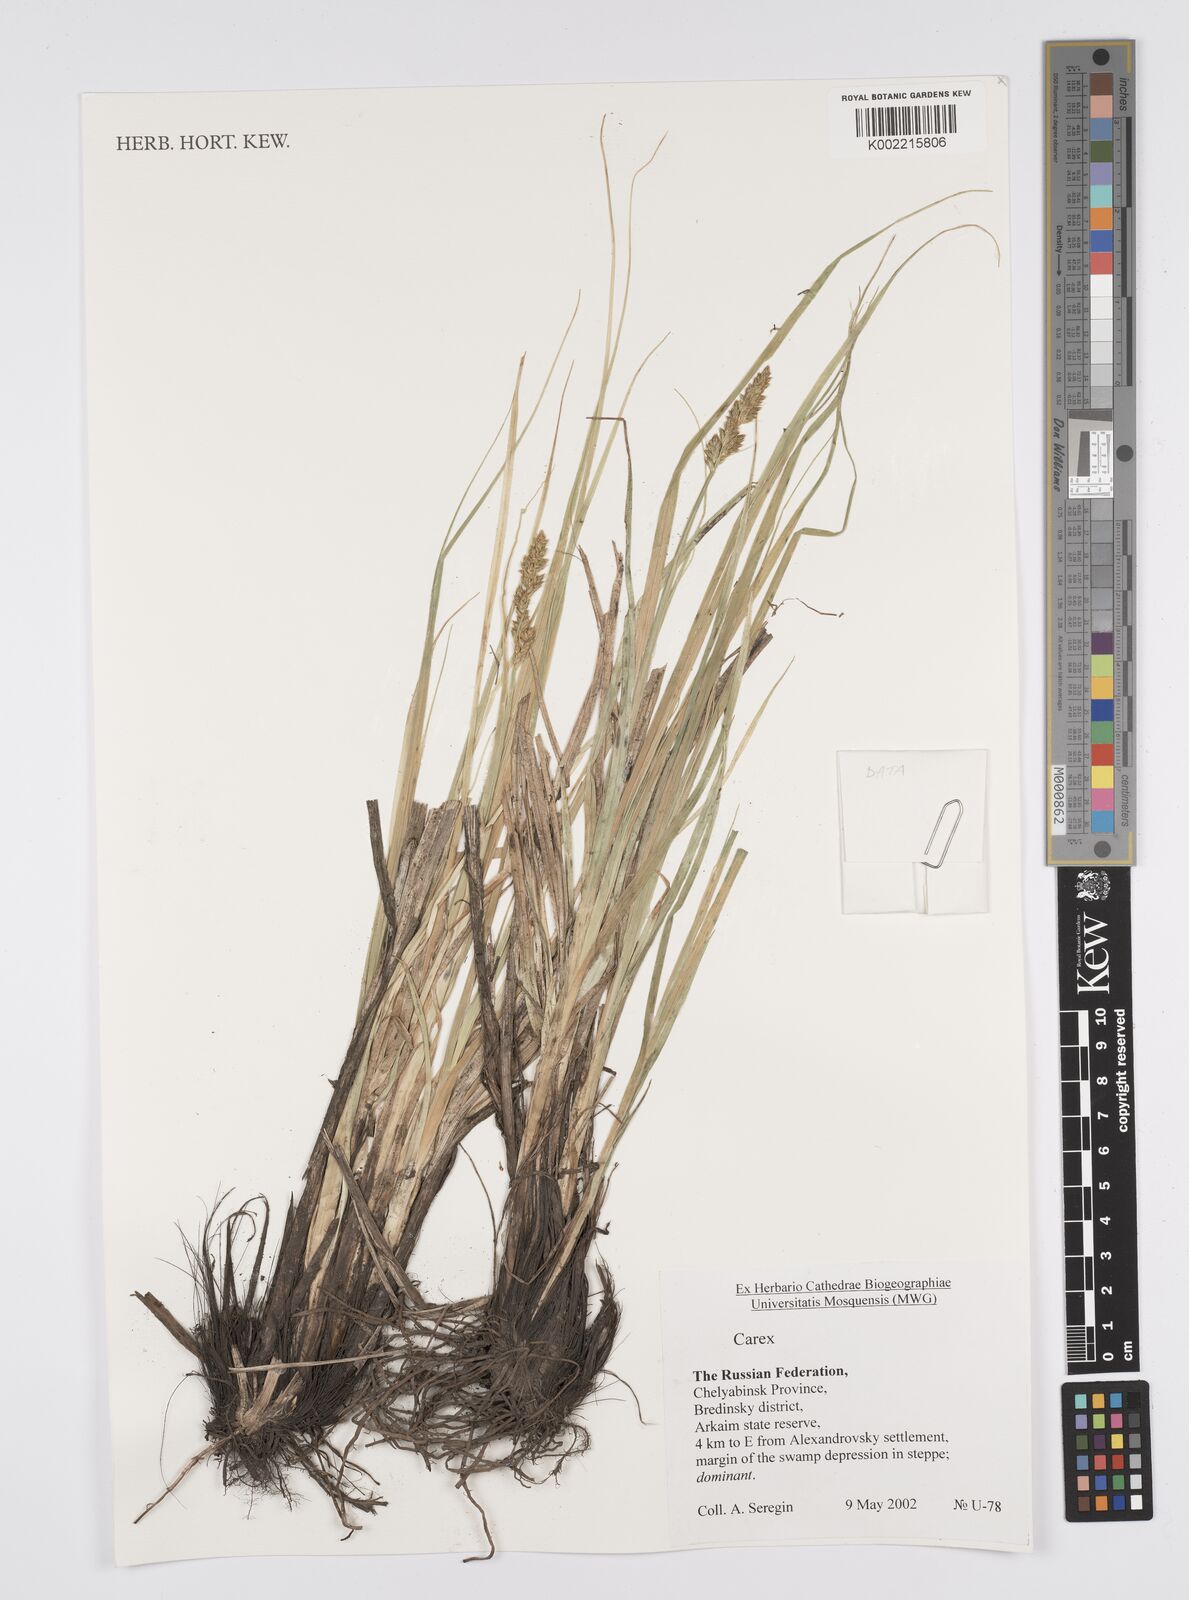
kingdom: Plantae
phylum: Tracheophyta
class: Liliopsida
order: Poales
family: Cyperaceae
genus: Carex
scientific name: Carex
